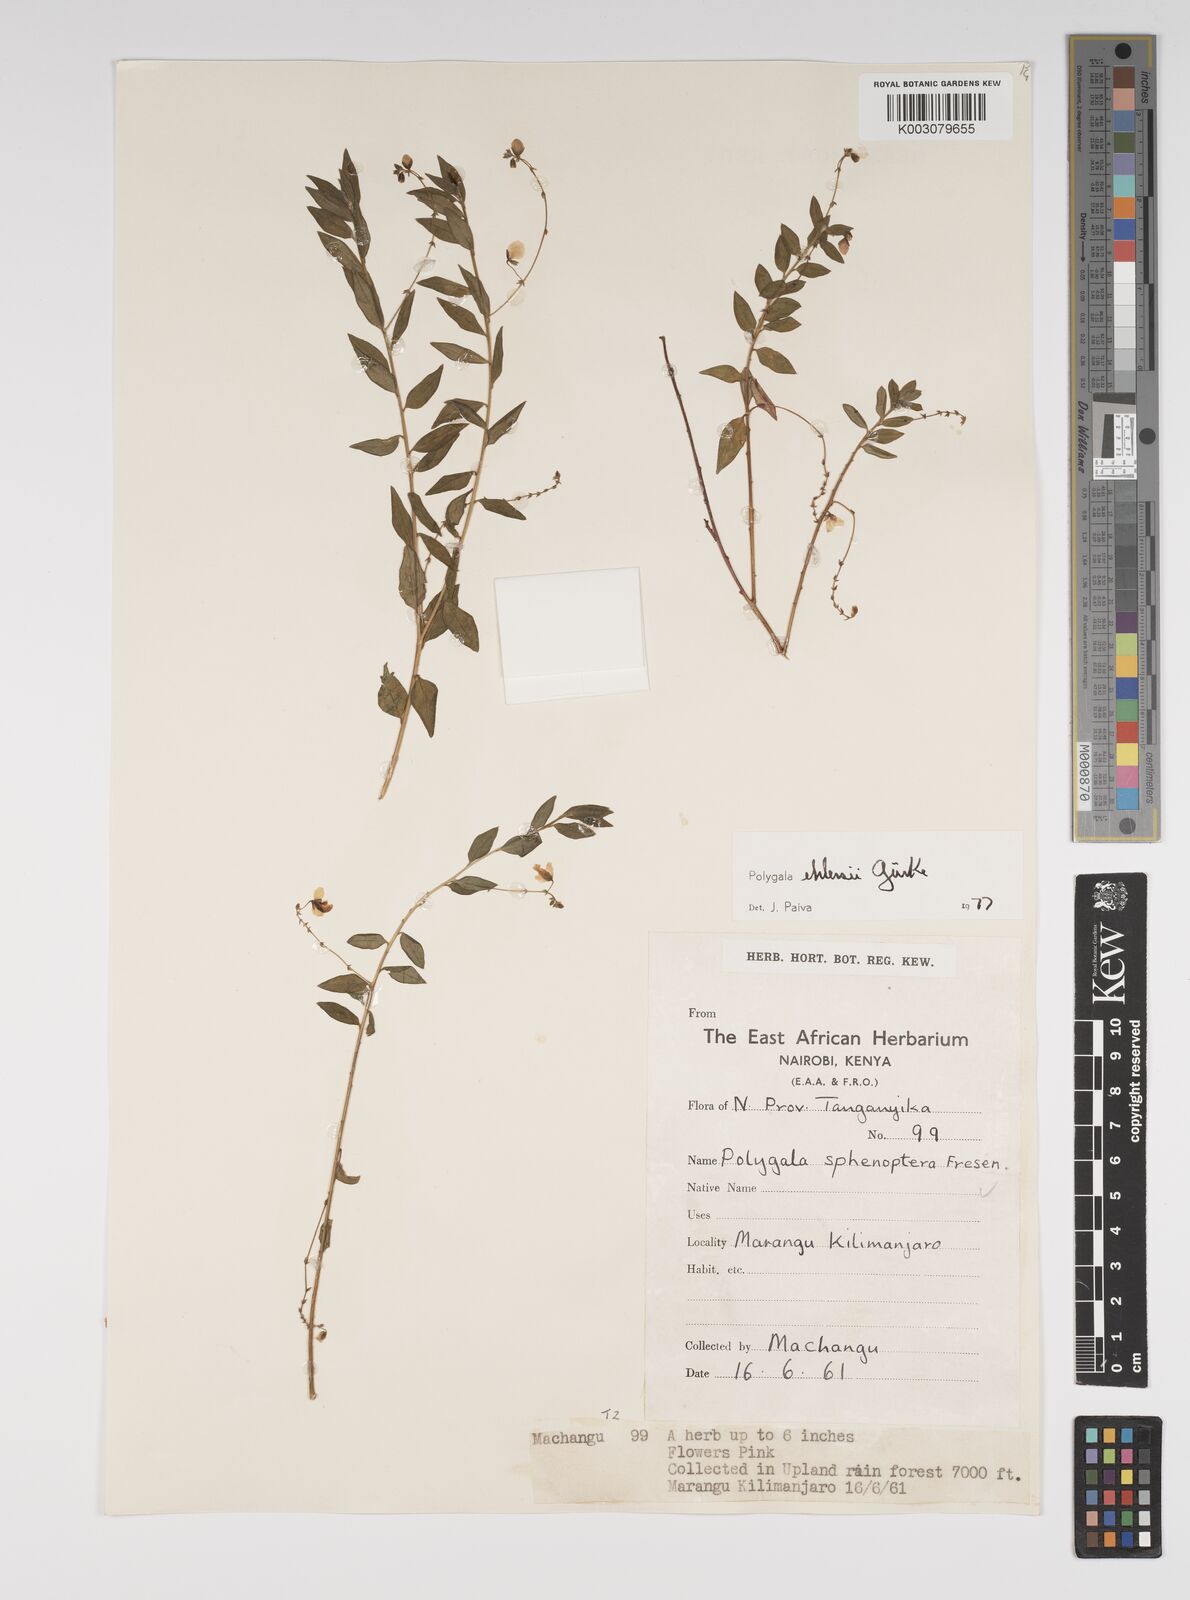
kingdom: Plantae
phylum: Tracheophyta
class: Magnoliopsida
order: Fabales
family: Polygalaceae
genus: Polygala
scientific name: Polygala ehlersii
